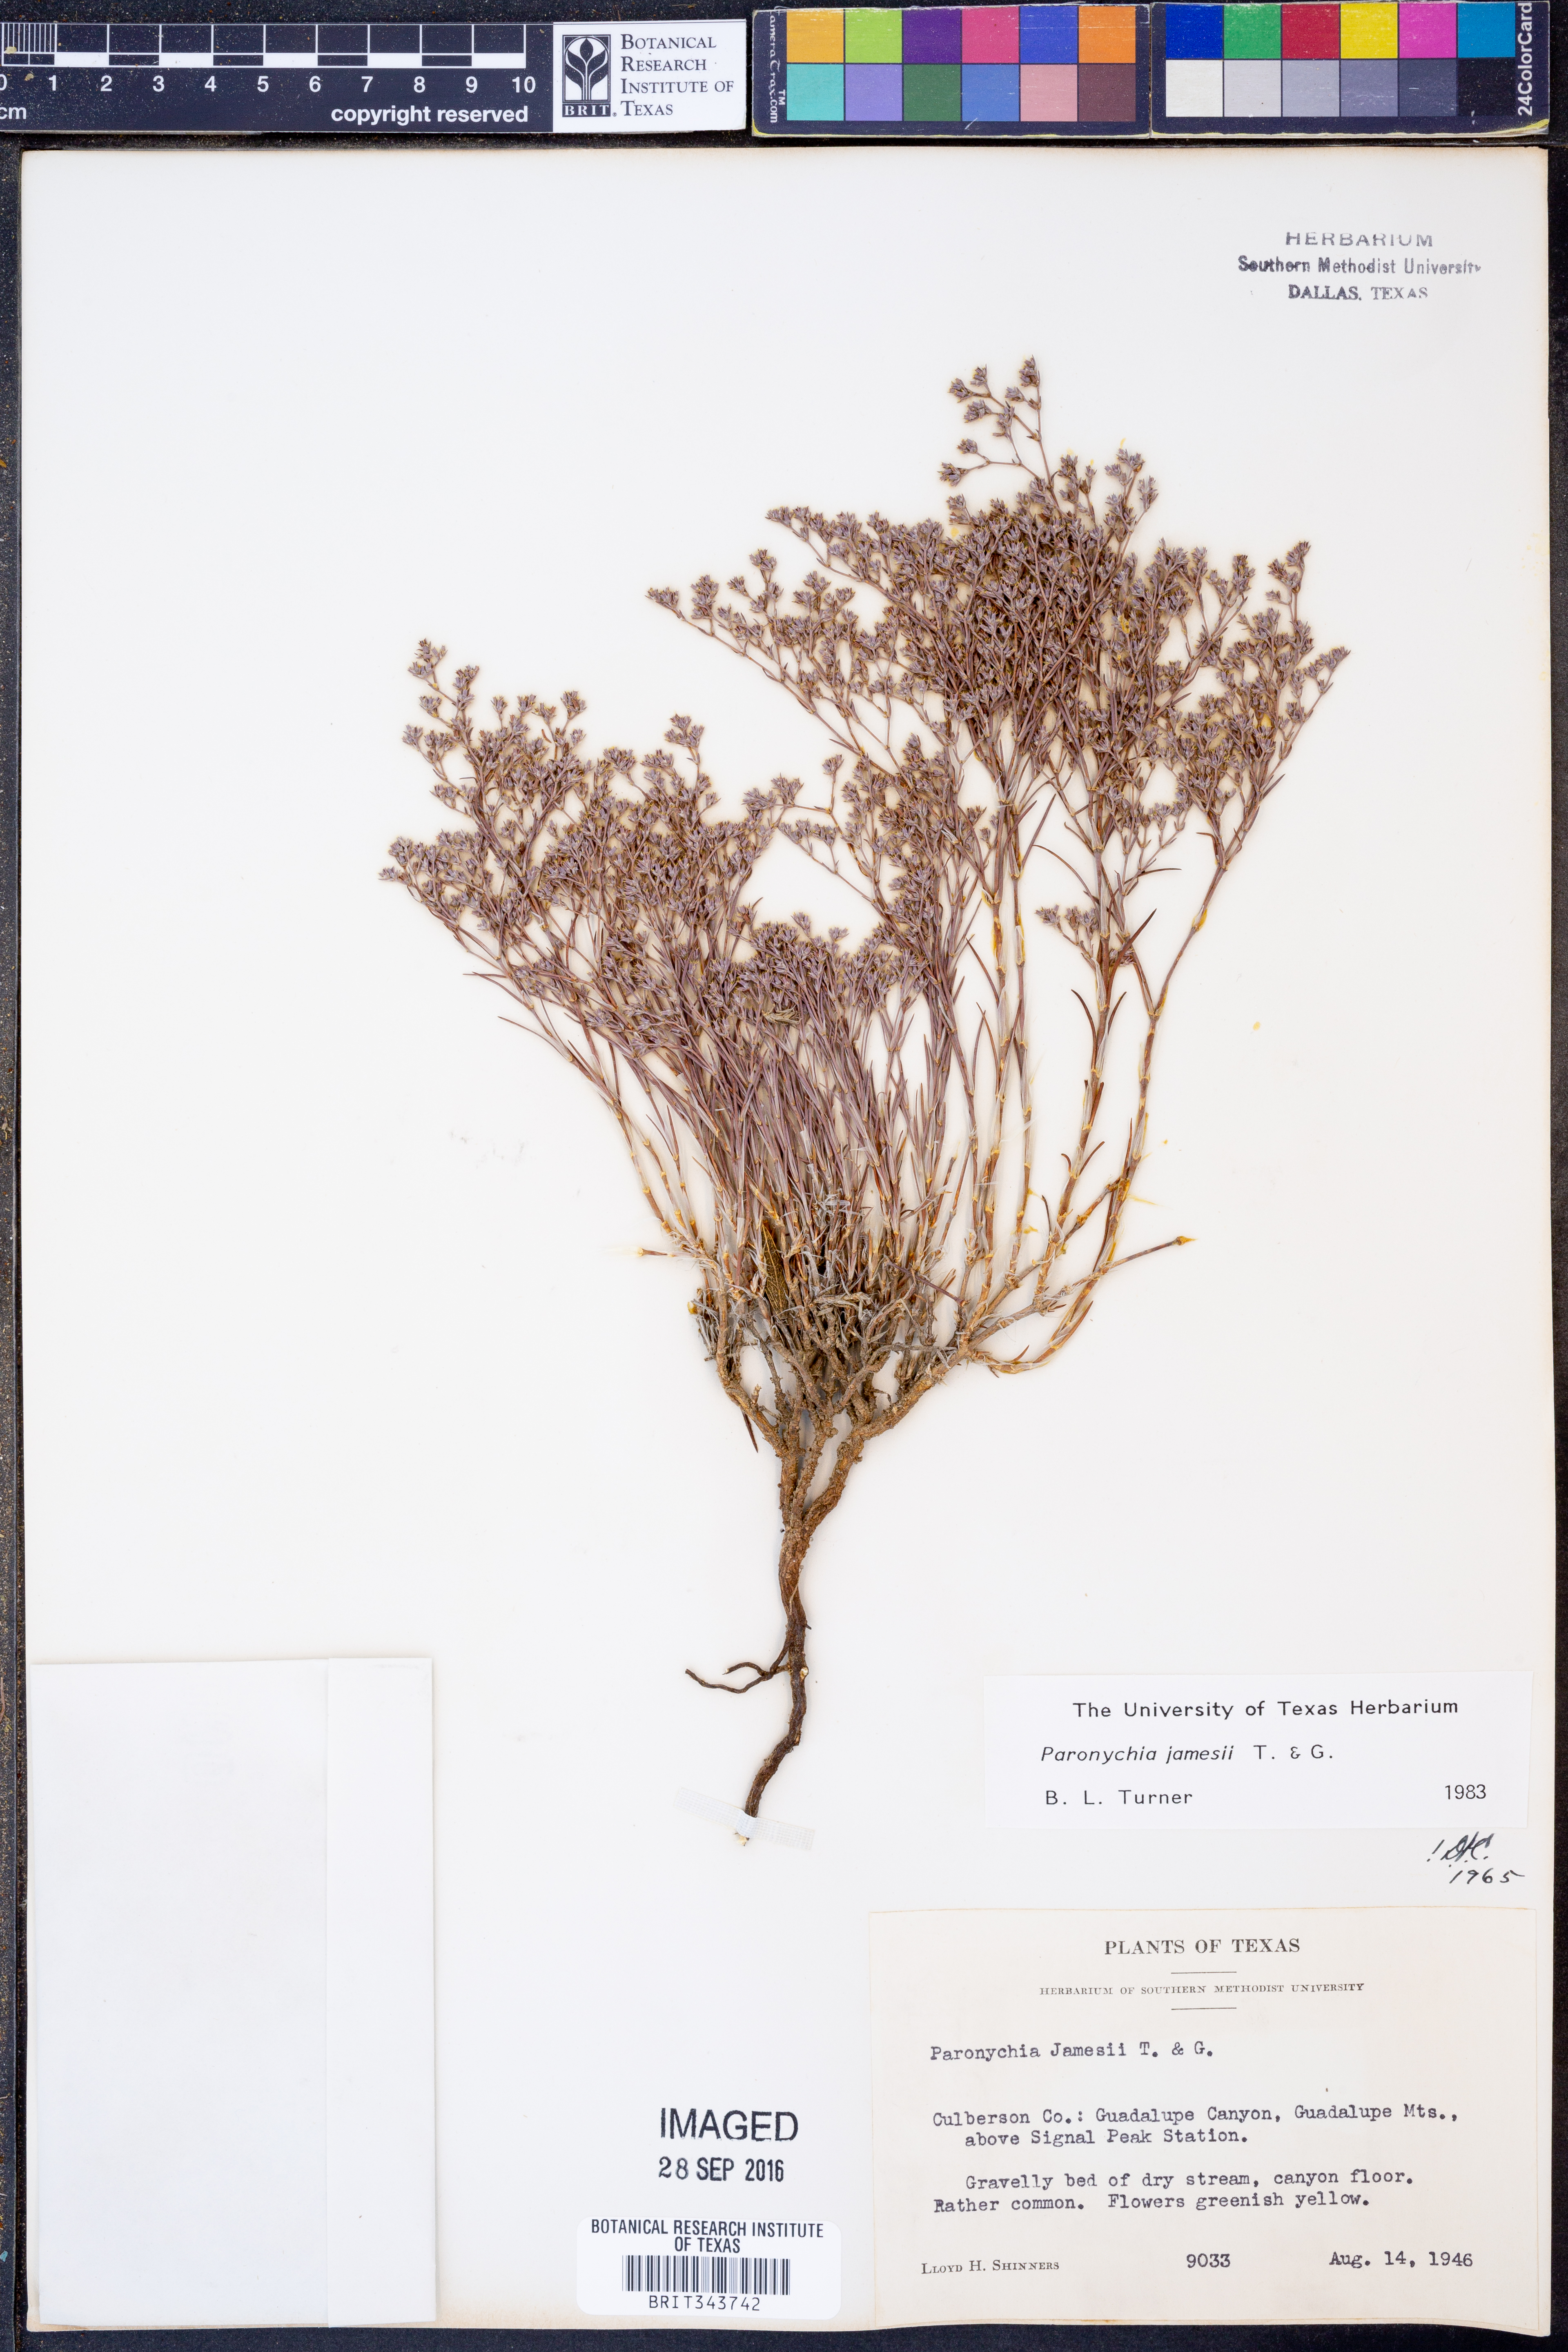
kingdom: Plantae
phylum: Tracheophyta
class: Magnoliopsida
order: Caryophyllales
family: Caryophyllaceae
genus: Paronychia
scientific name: Paronychia jamesii
